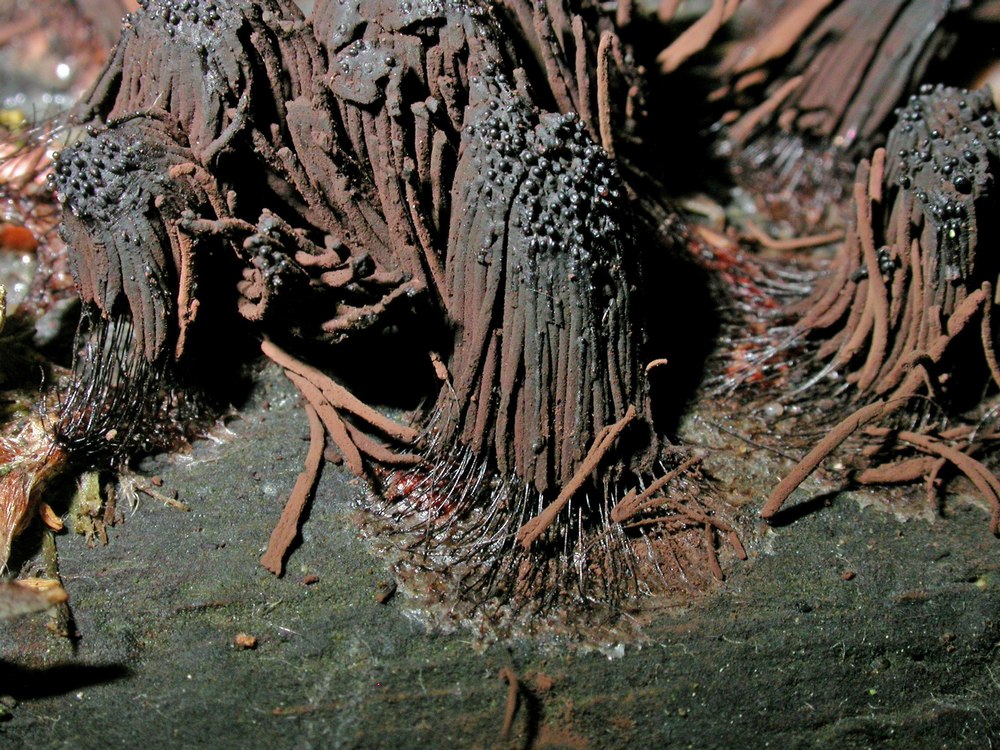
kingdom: Protozoa
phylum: Mycetozoa
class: Myxomycetes
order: Stemonitidales
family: Stemonitidaceae
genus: Stemonitis
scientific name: Stemonitis fusca
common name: sodbrun støvkølle
